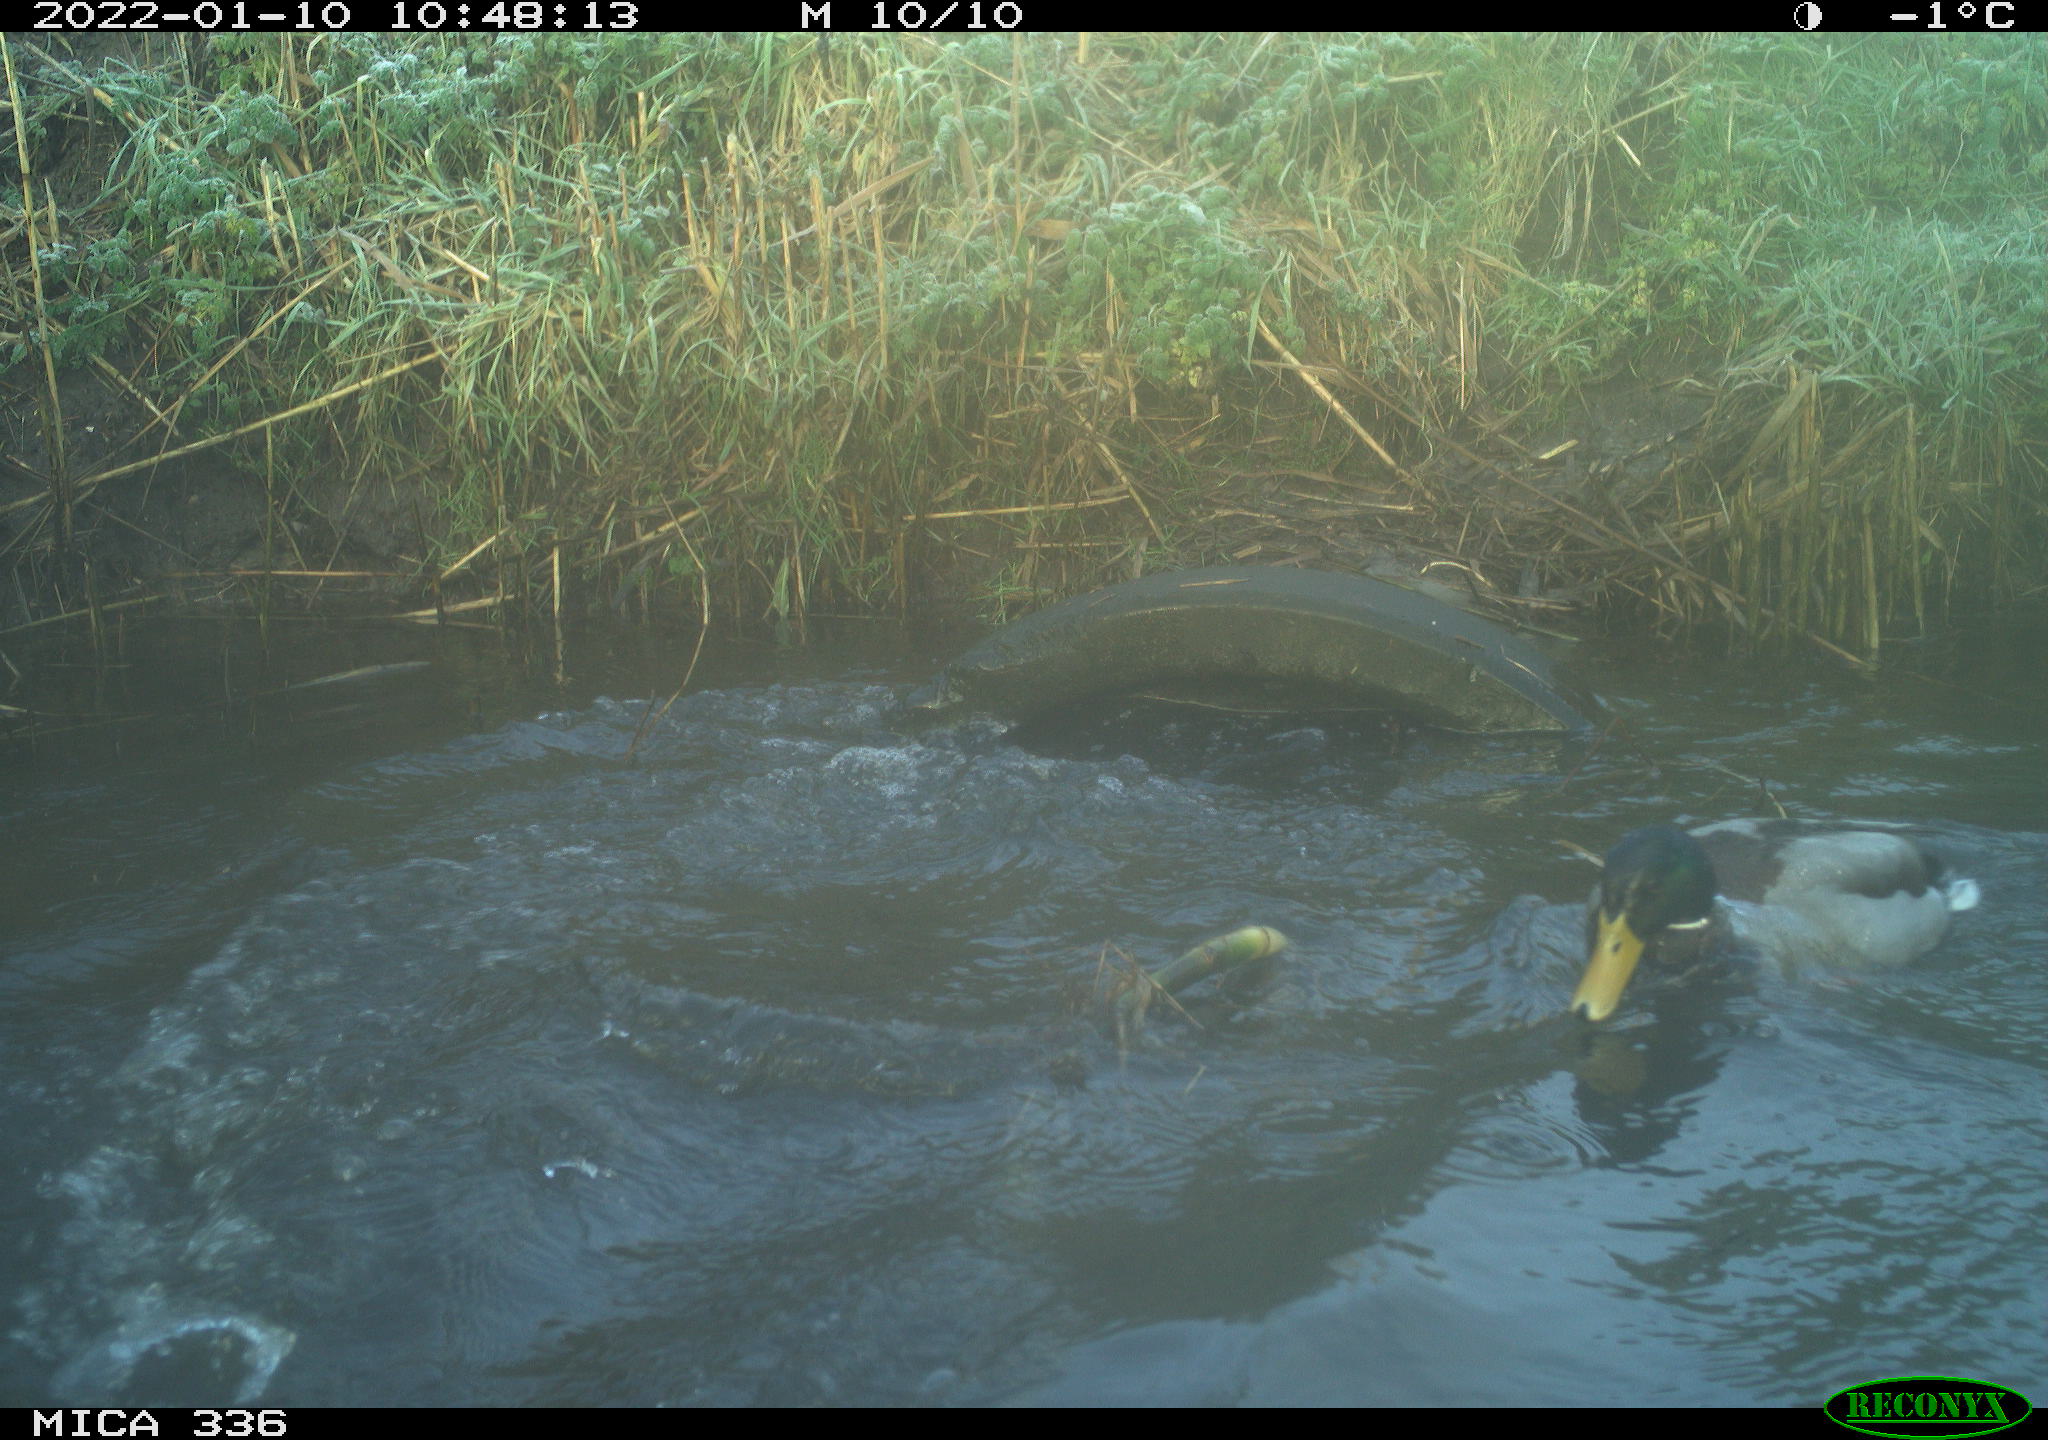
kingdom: Animalia
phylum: Chordata
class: Aves
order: Anseriformes
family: Anatidae
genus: Anas
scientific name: Anas platyrhynchos
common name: Mallard
